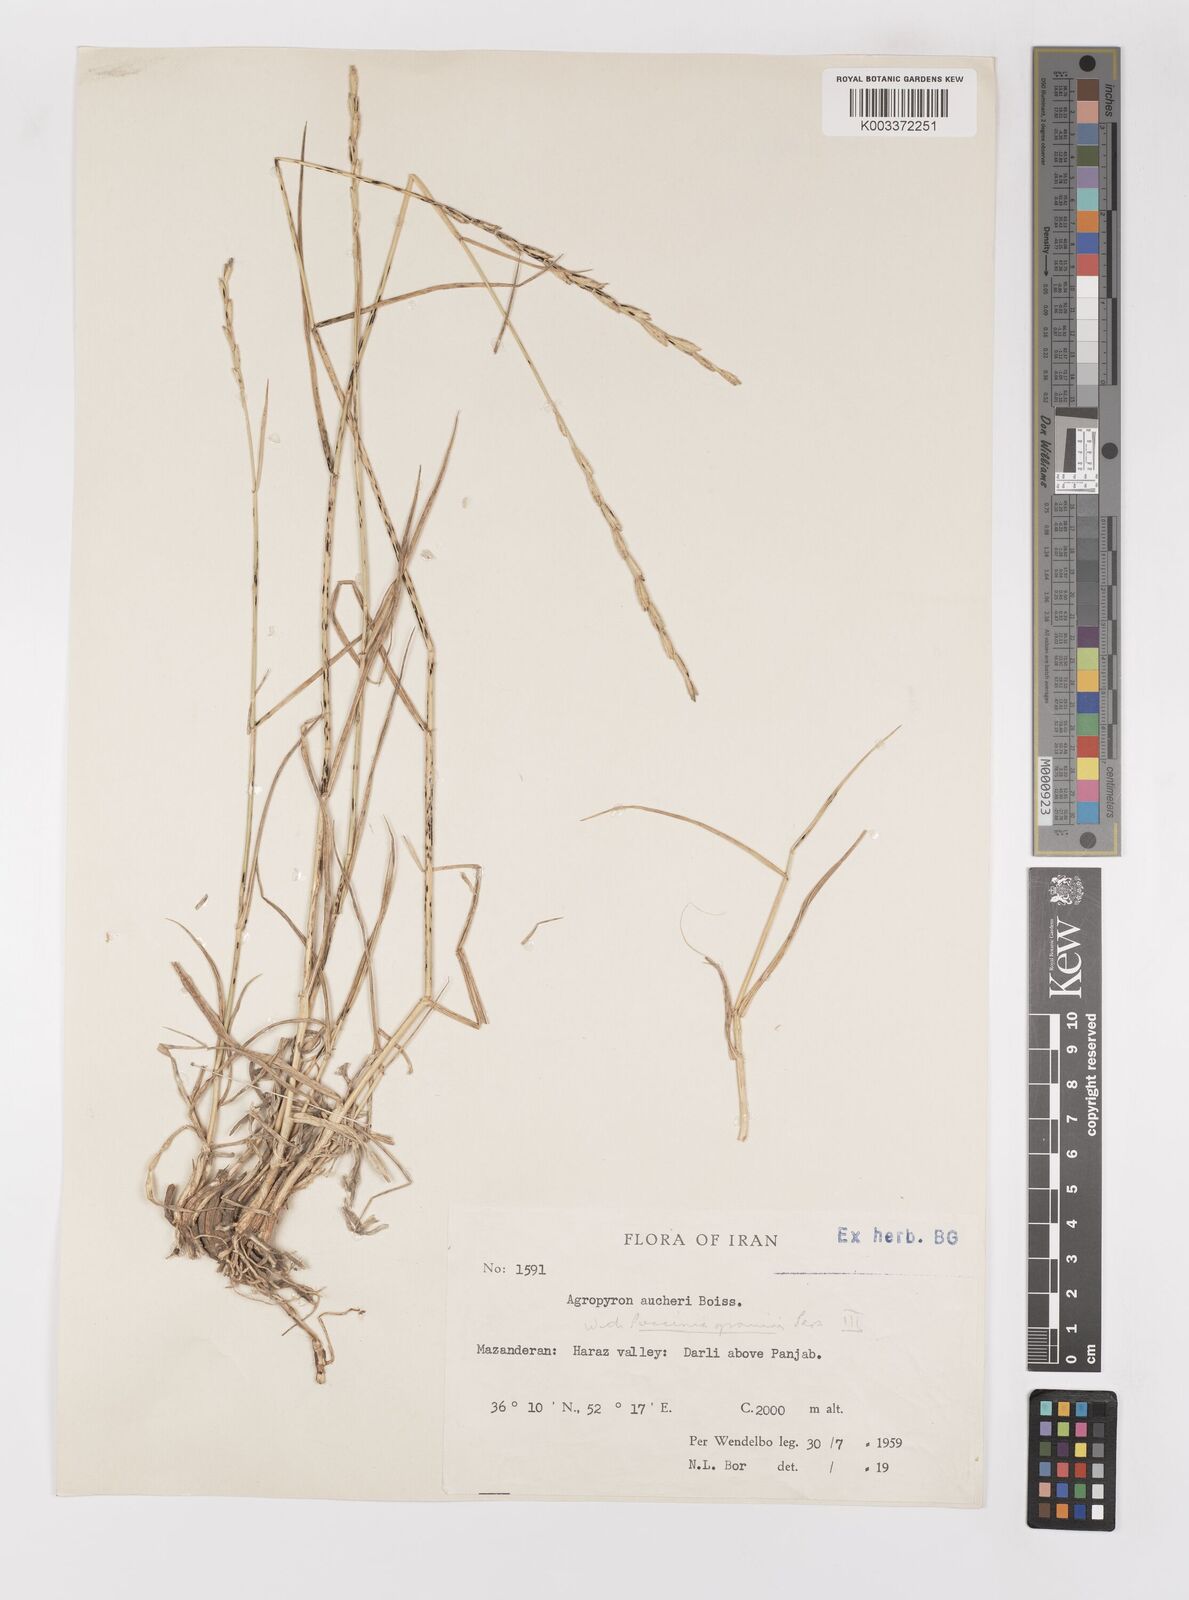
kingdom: Plantae
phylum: Tracheophyta
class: Liliopsida
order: Poales
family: Poaceae
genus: Thinopyrum
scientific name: Thinopyrum intermedium
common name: Intermediate wheatgrass
